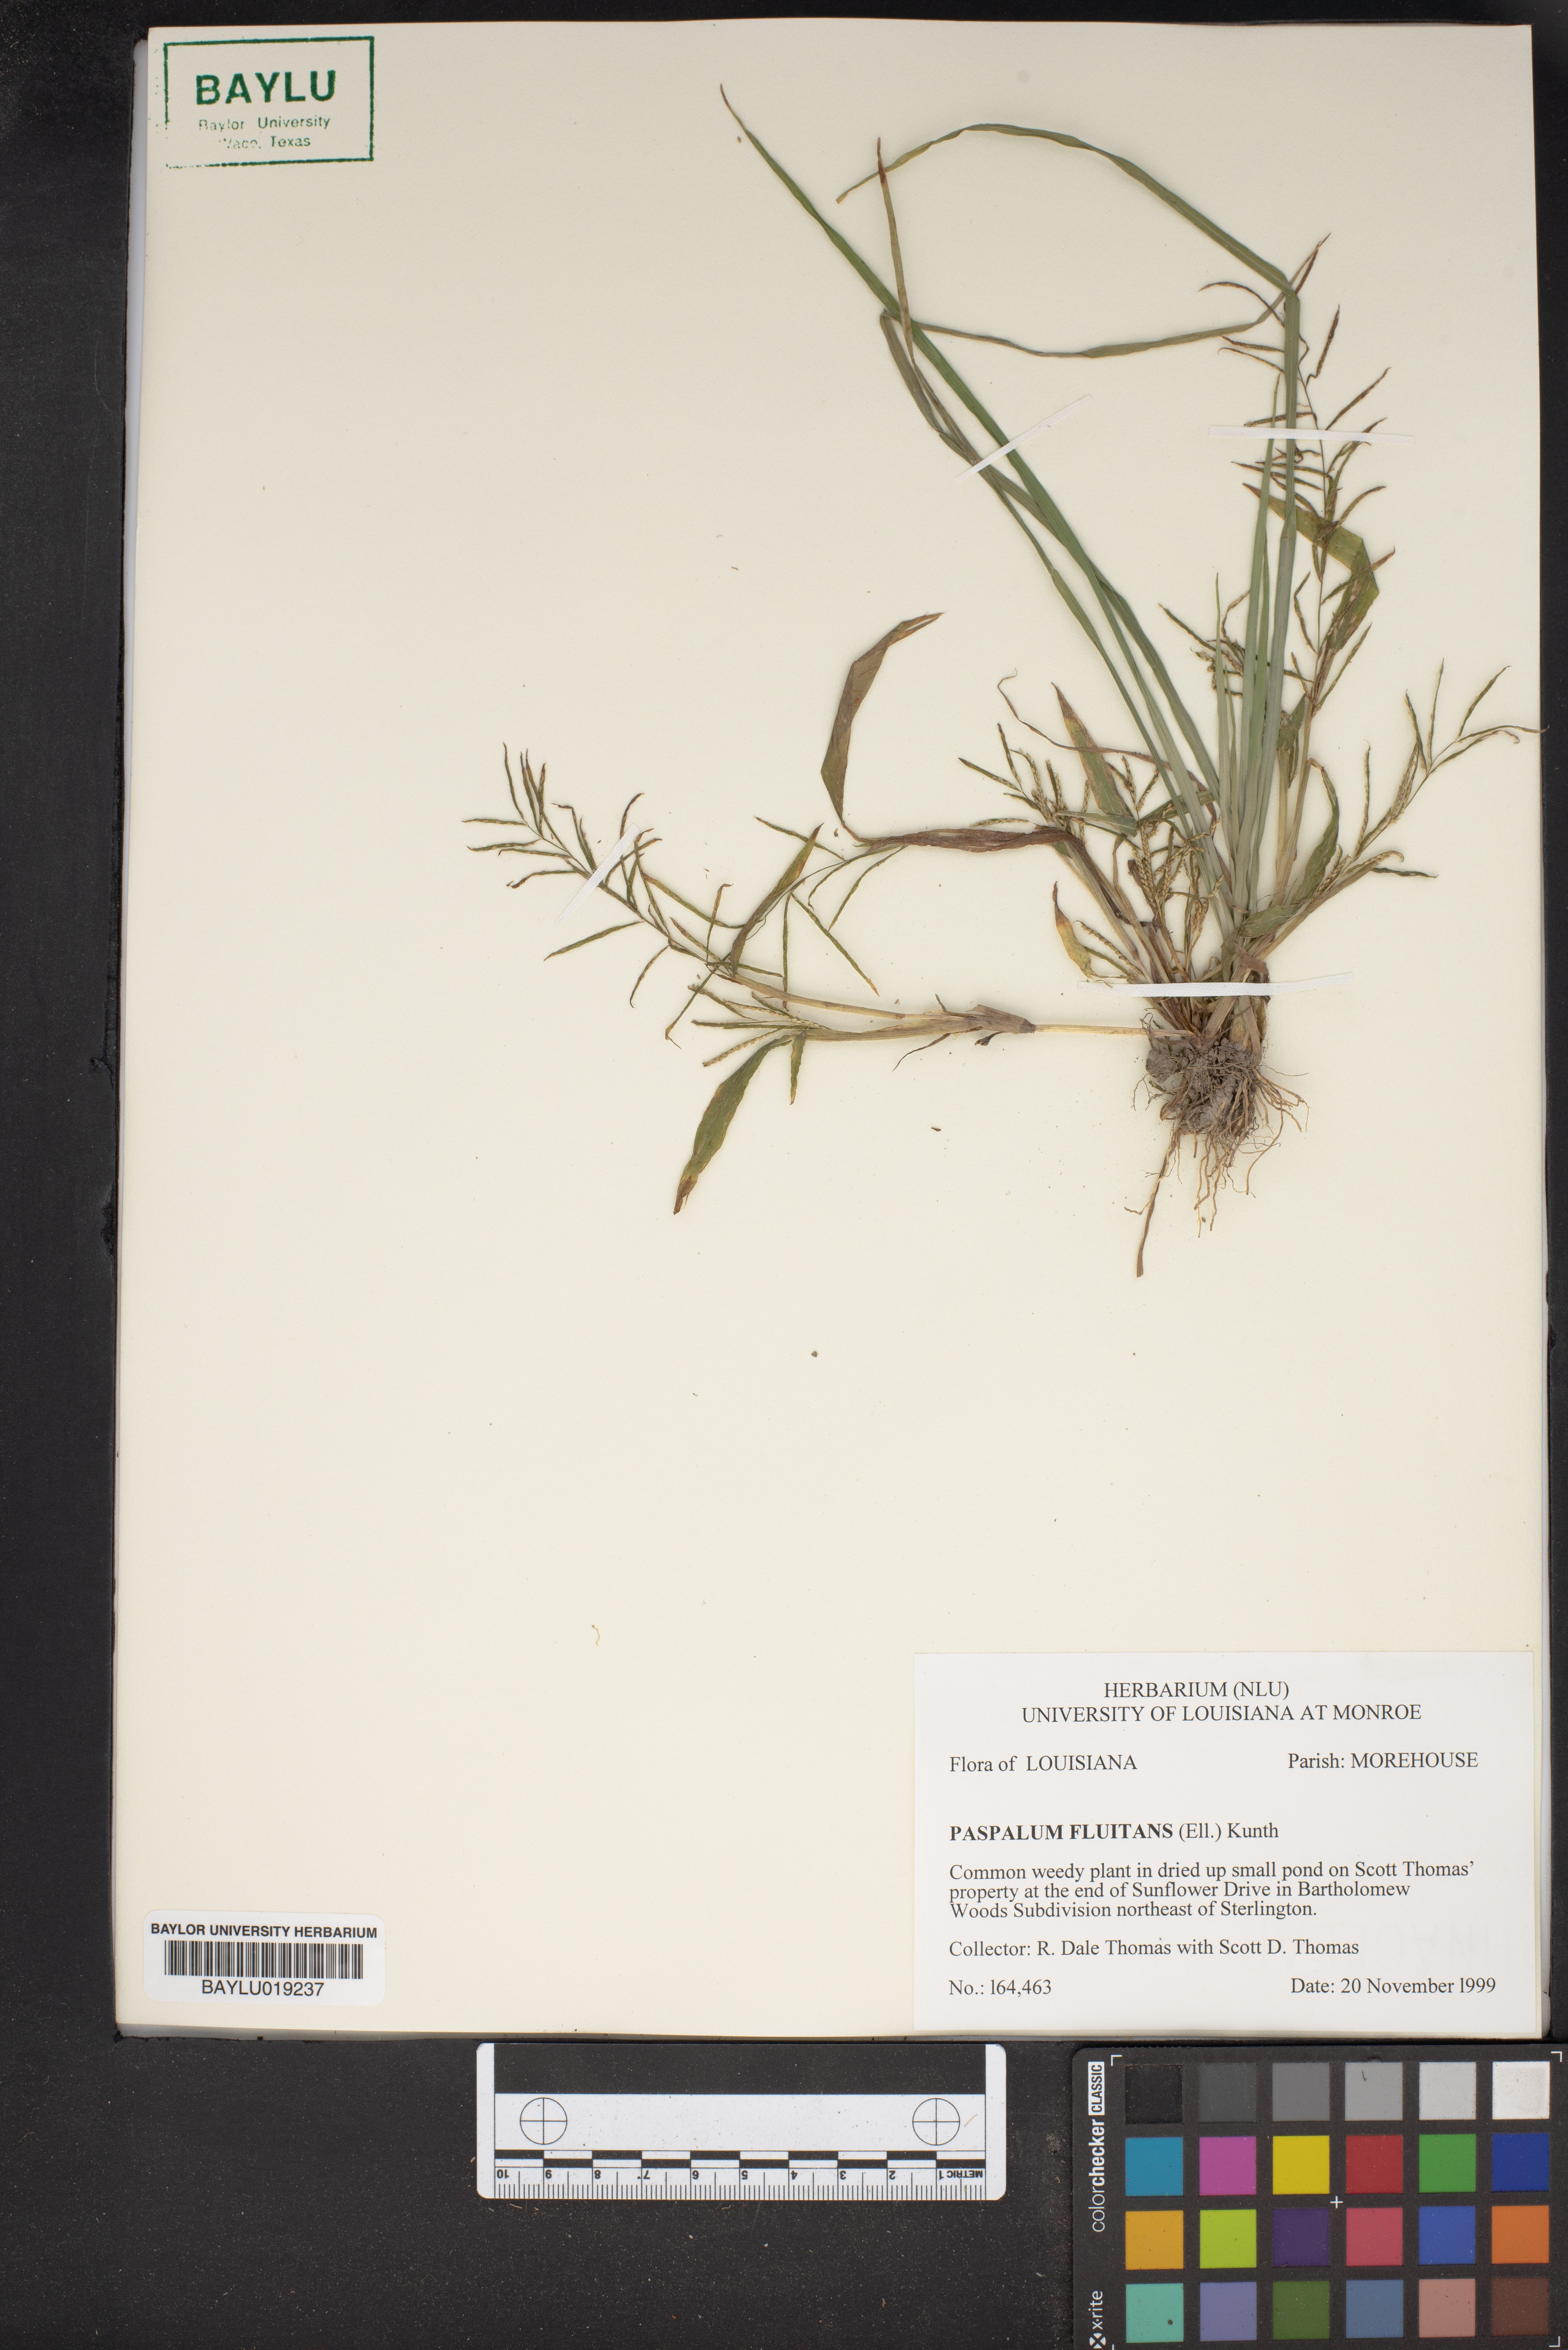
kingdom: Plantae
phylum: Tracheophyta
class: Liliopsida
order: Poales
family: Poaceae
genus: Paspalum
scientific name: Paspalum repens
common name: Water paspalum
